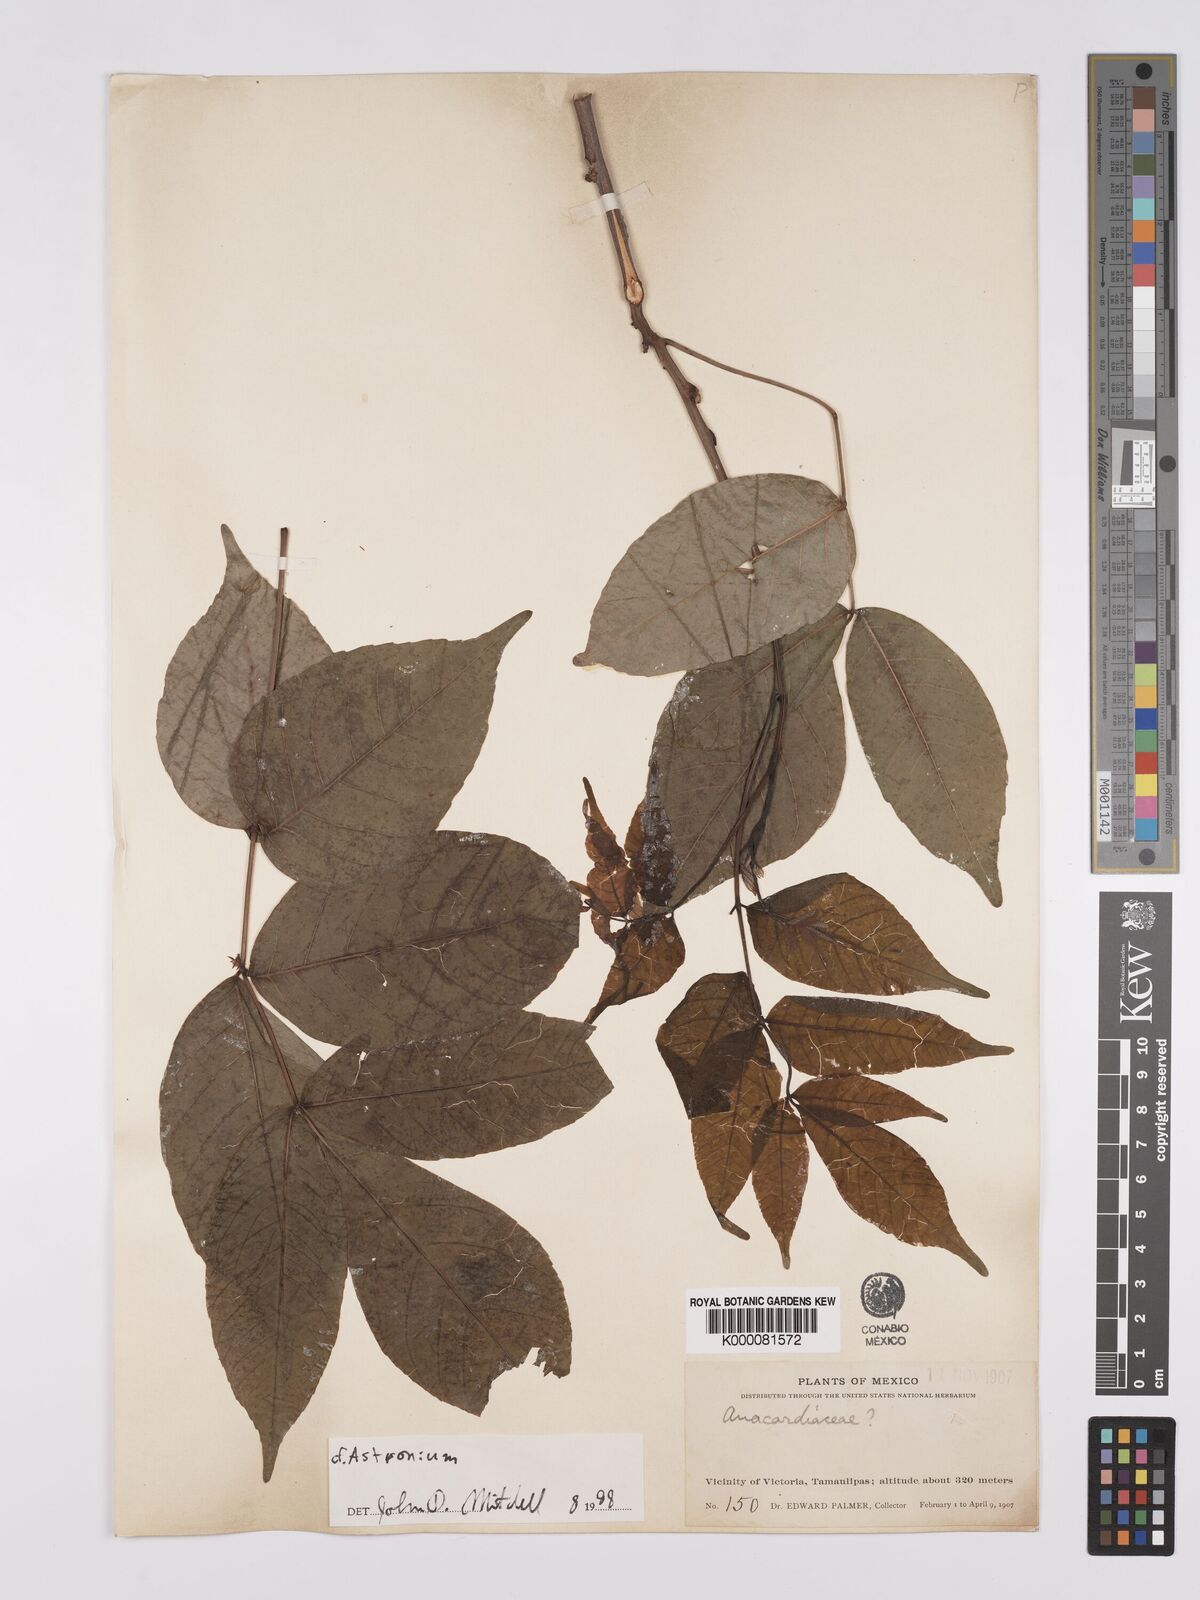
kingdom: Plantae
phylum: Tracheophyta
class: Magnoliopsida
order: Sapindales
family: Anacardiaceae
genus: Astronium
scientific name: Astronium
